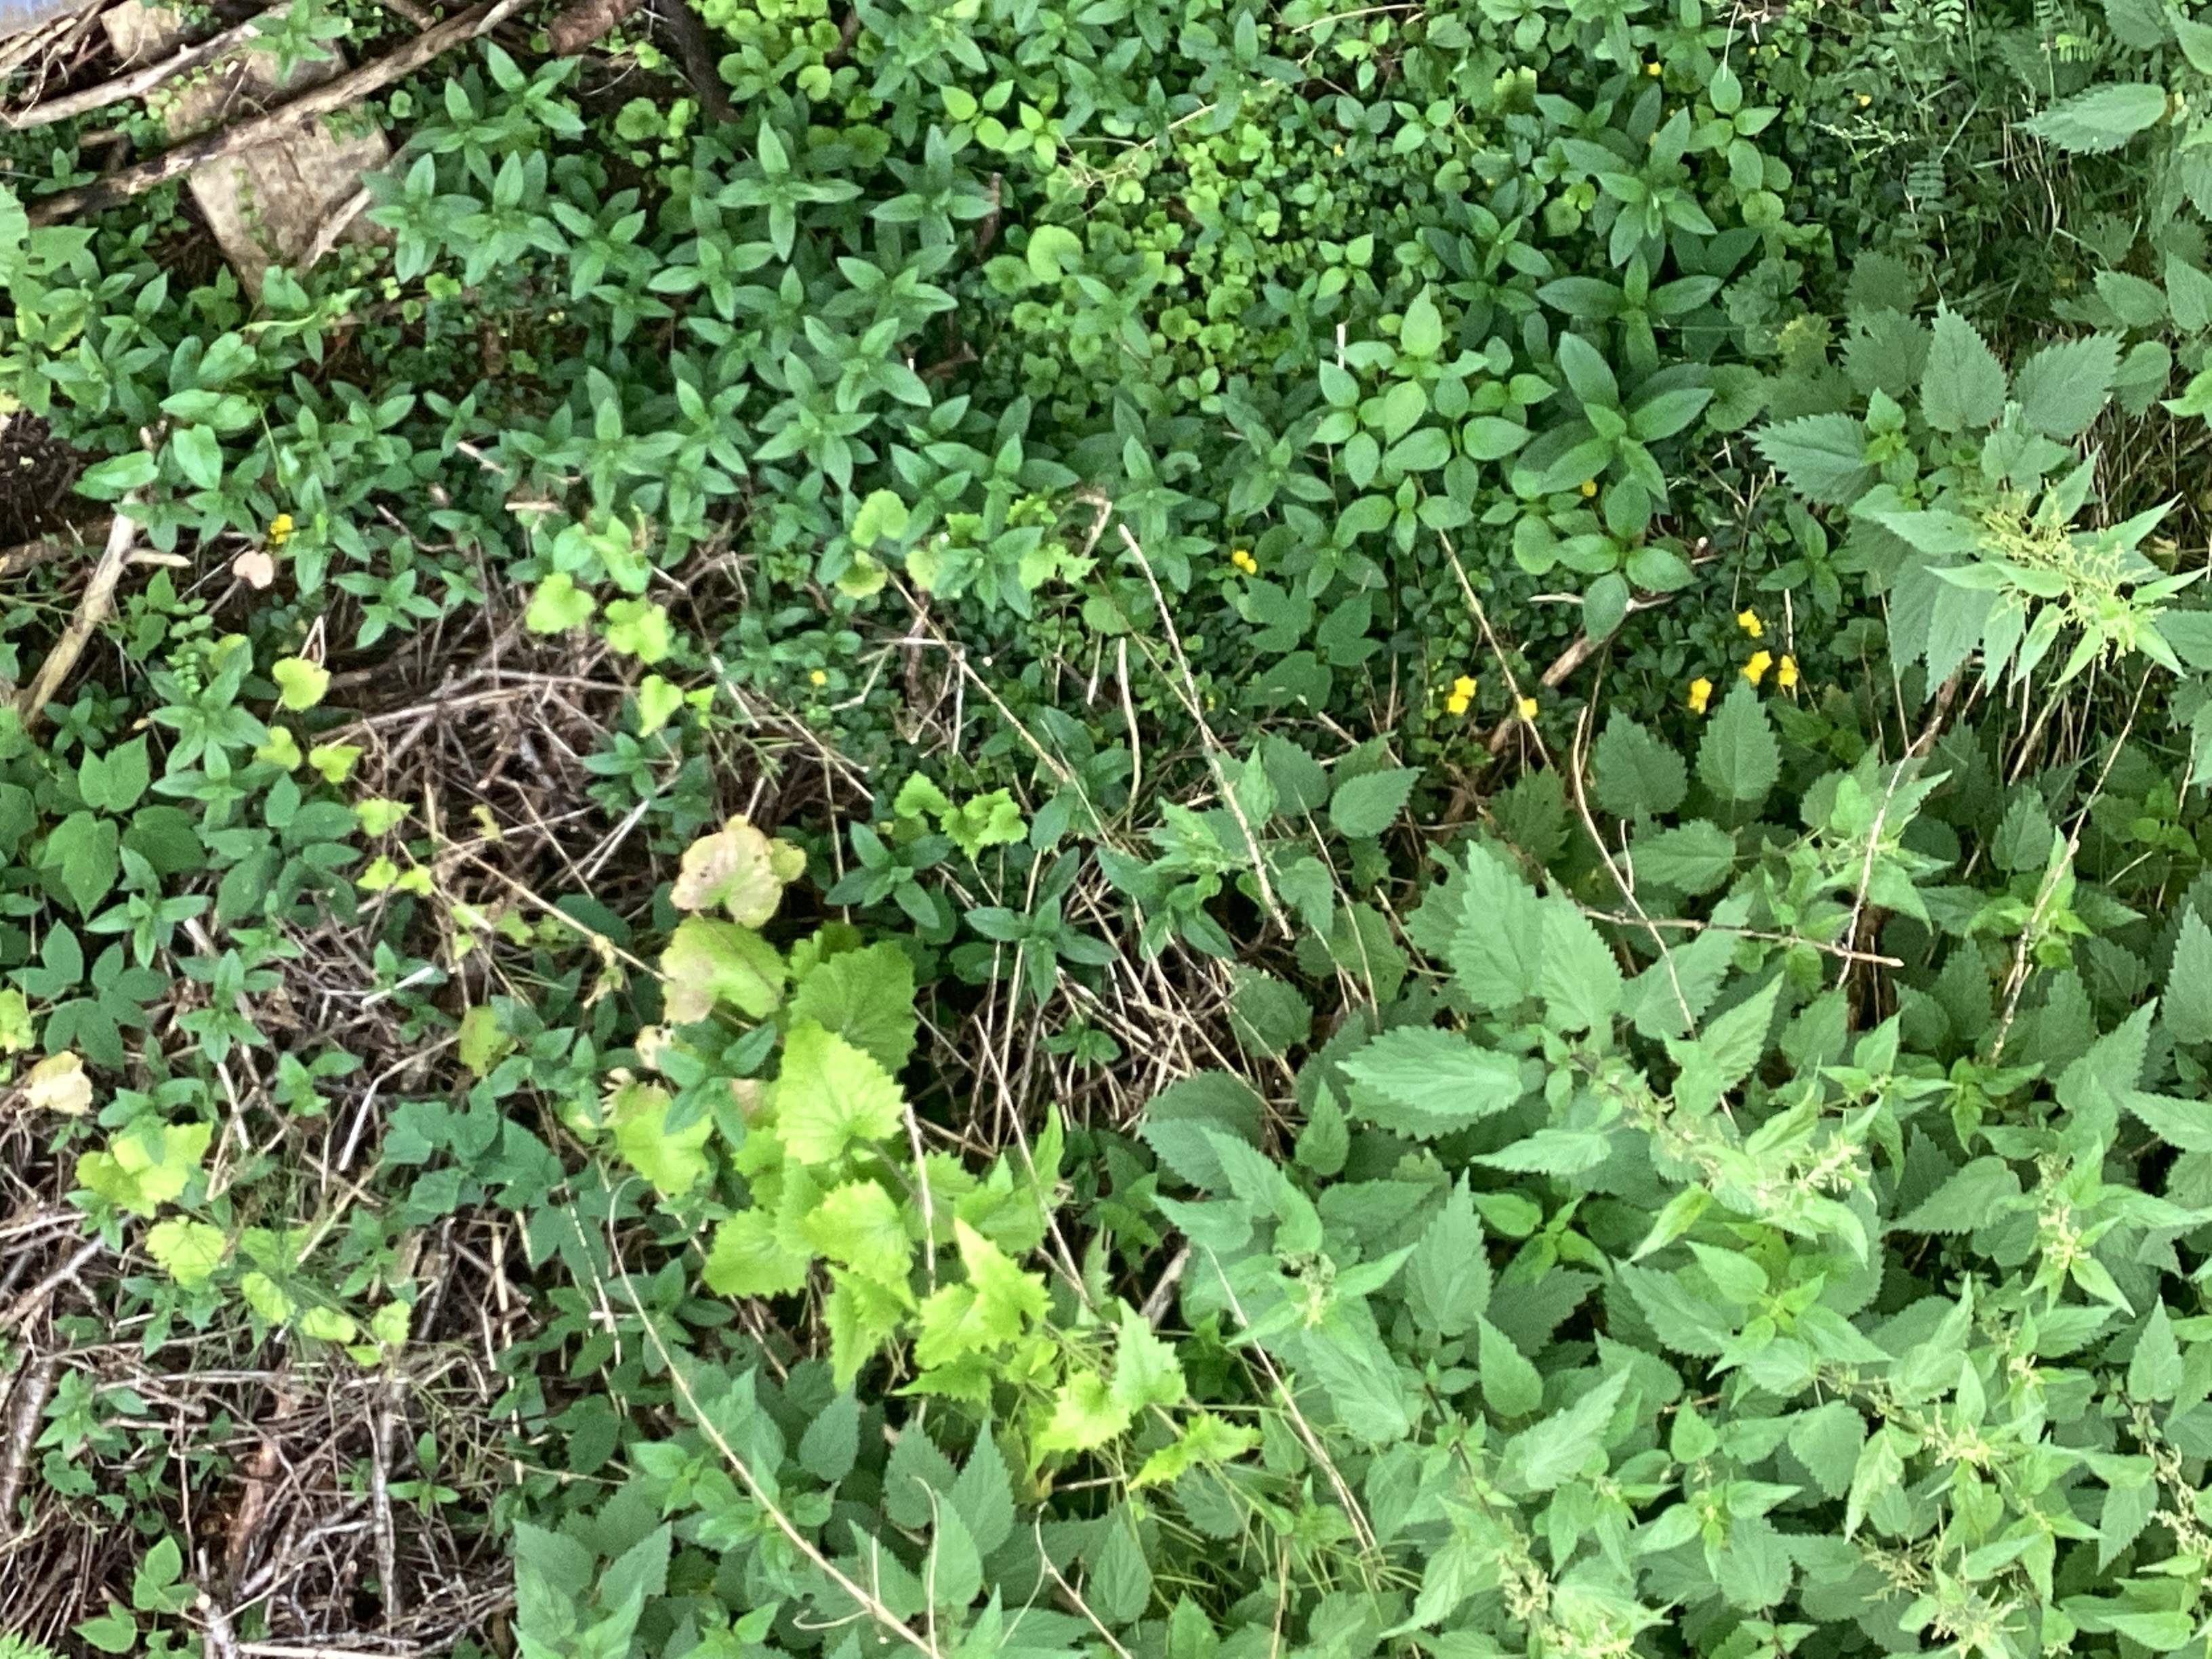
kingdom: Plantae
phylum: Tracheophyta
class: Magnoliopsida
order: Ericales
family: Primulaceae
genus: Lysimachia
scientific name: Lysimachia nummularia
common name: krypfredløs
